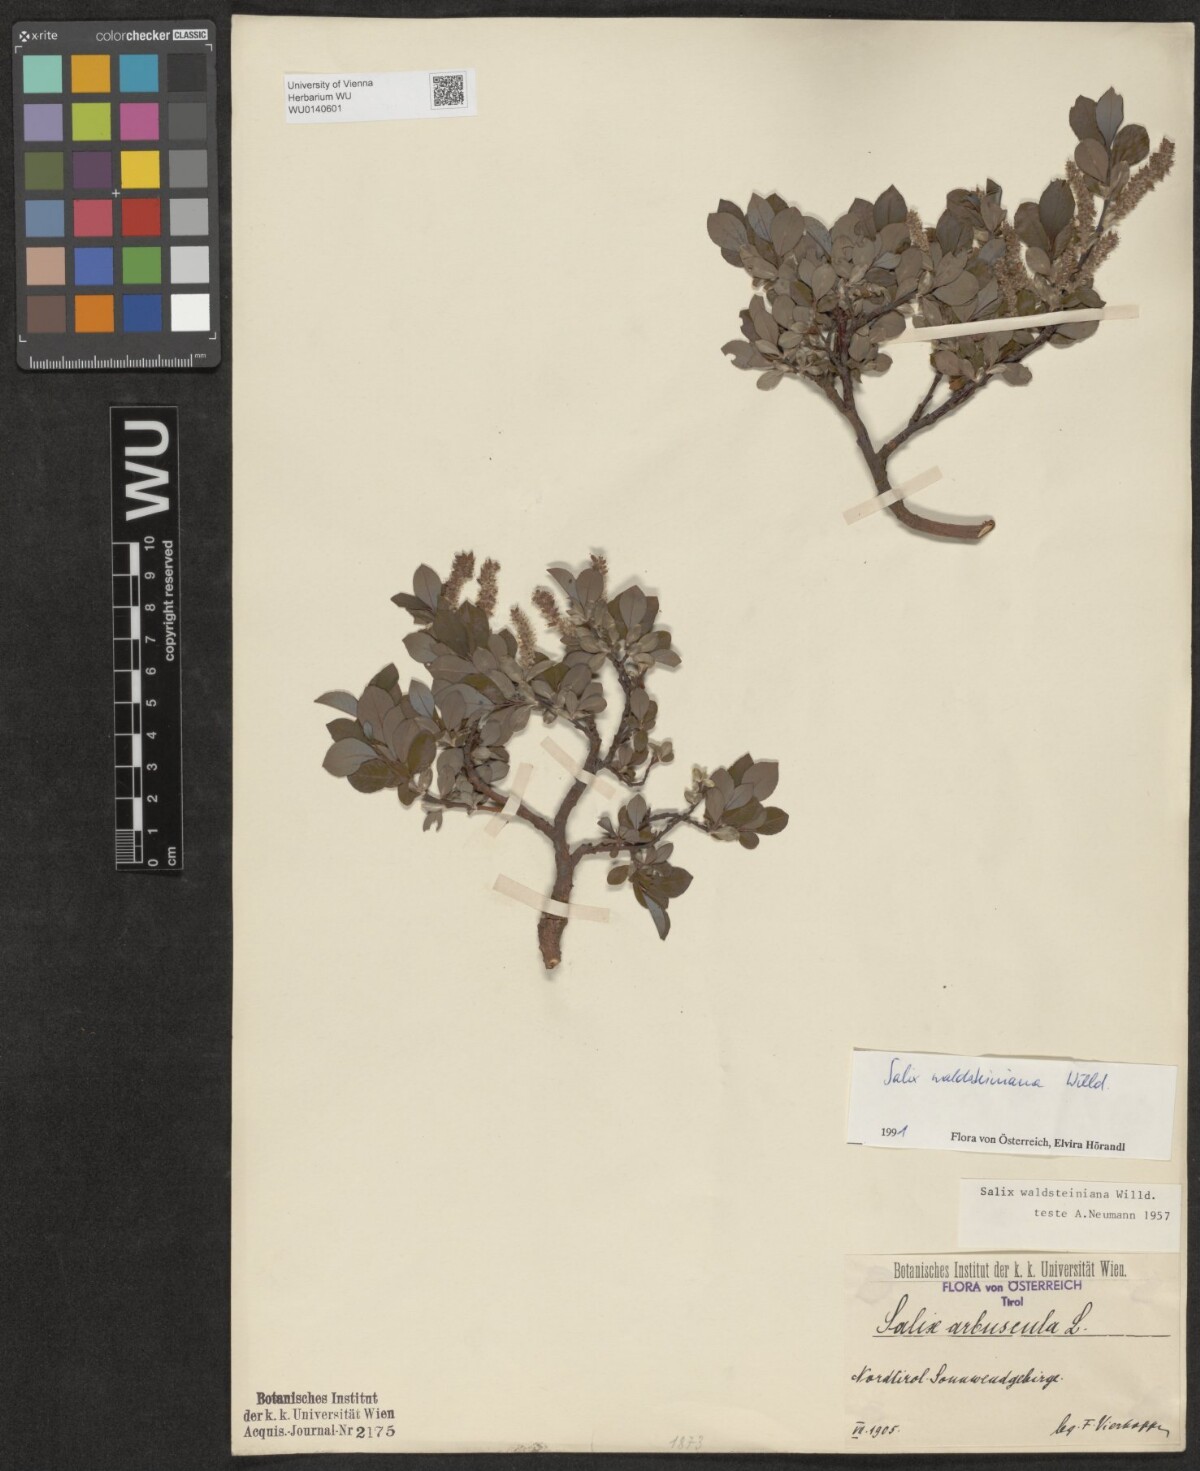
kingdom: Plantae
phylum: Tracheophyta
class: Magnoliopsida
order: Malpighiales
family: Salicaceae
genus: Salix
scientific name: Salix waldsteiniana
